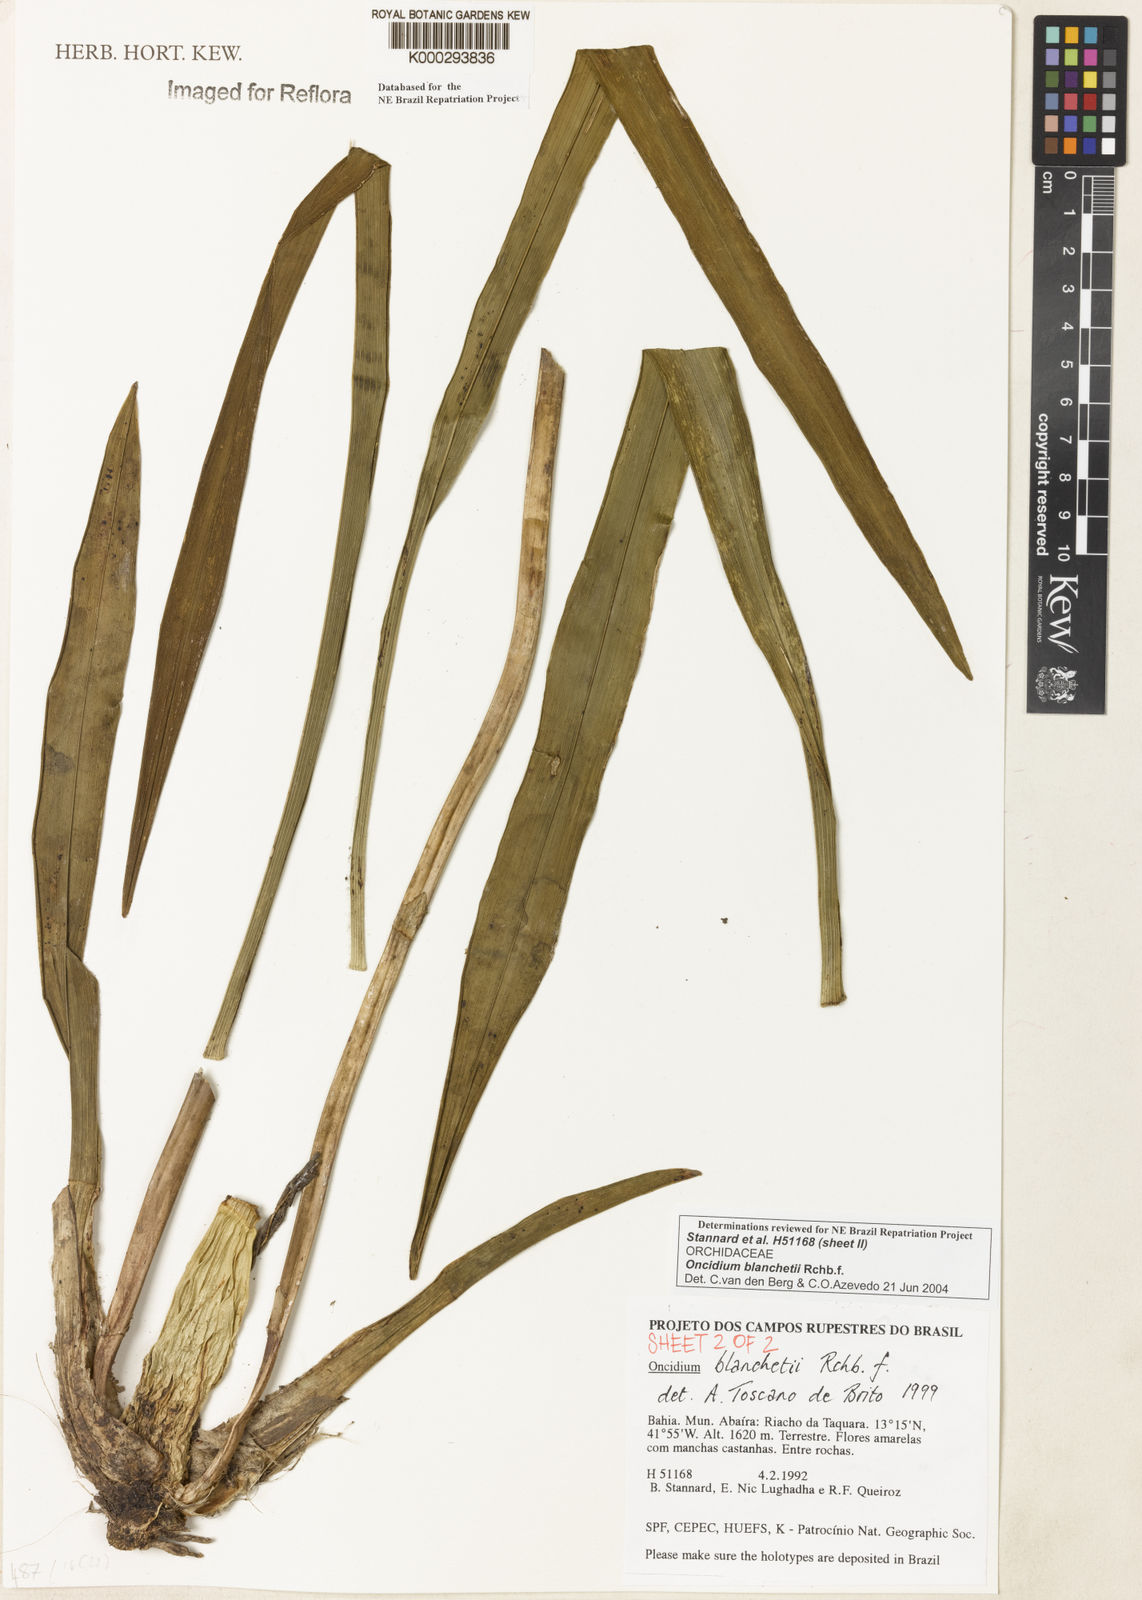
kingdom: Plantae
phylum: Tracheophyta
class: Liliopsida
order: Asparagales
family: Orchidaceae
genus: Gomesa
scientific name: Gomesa ramosa
